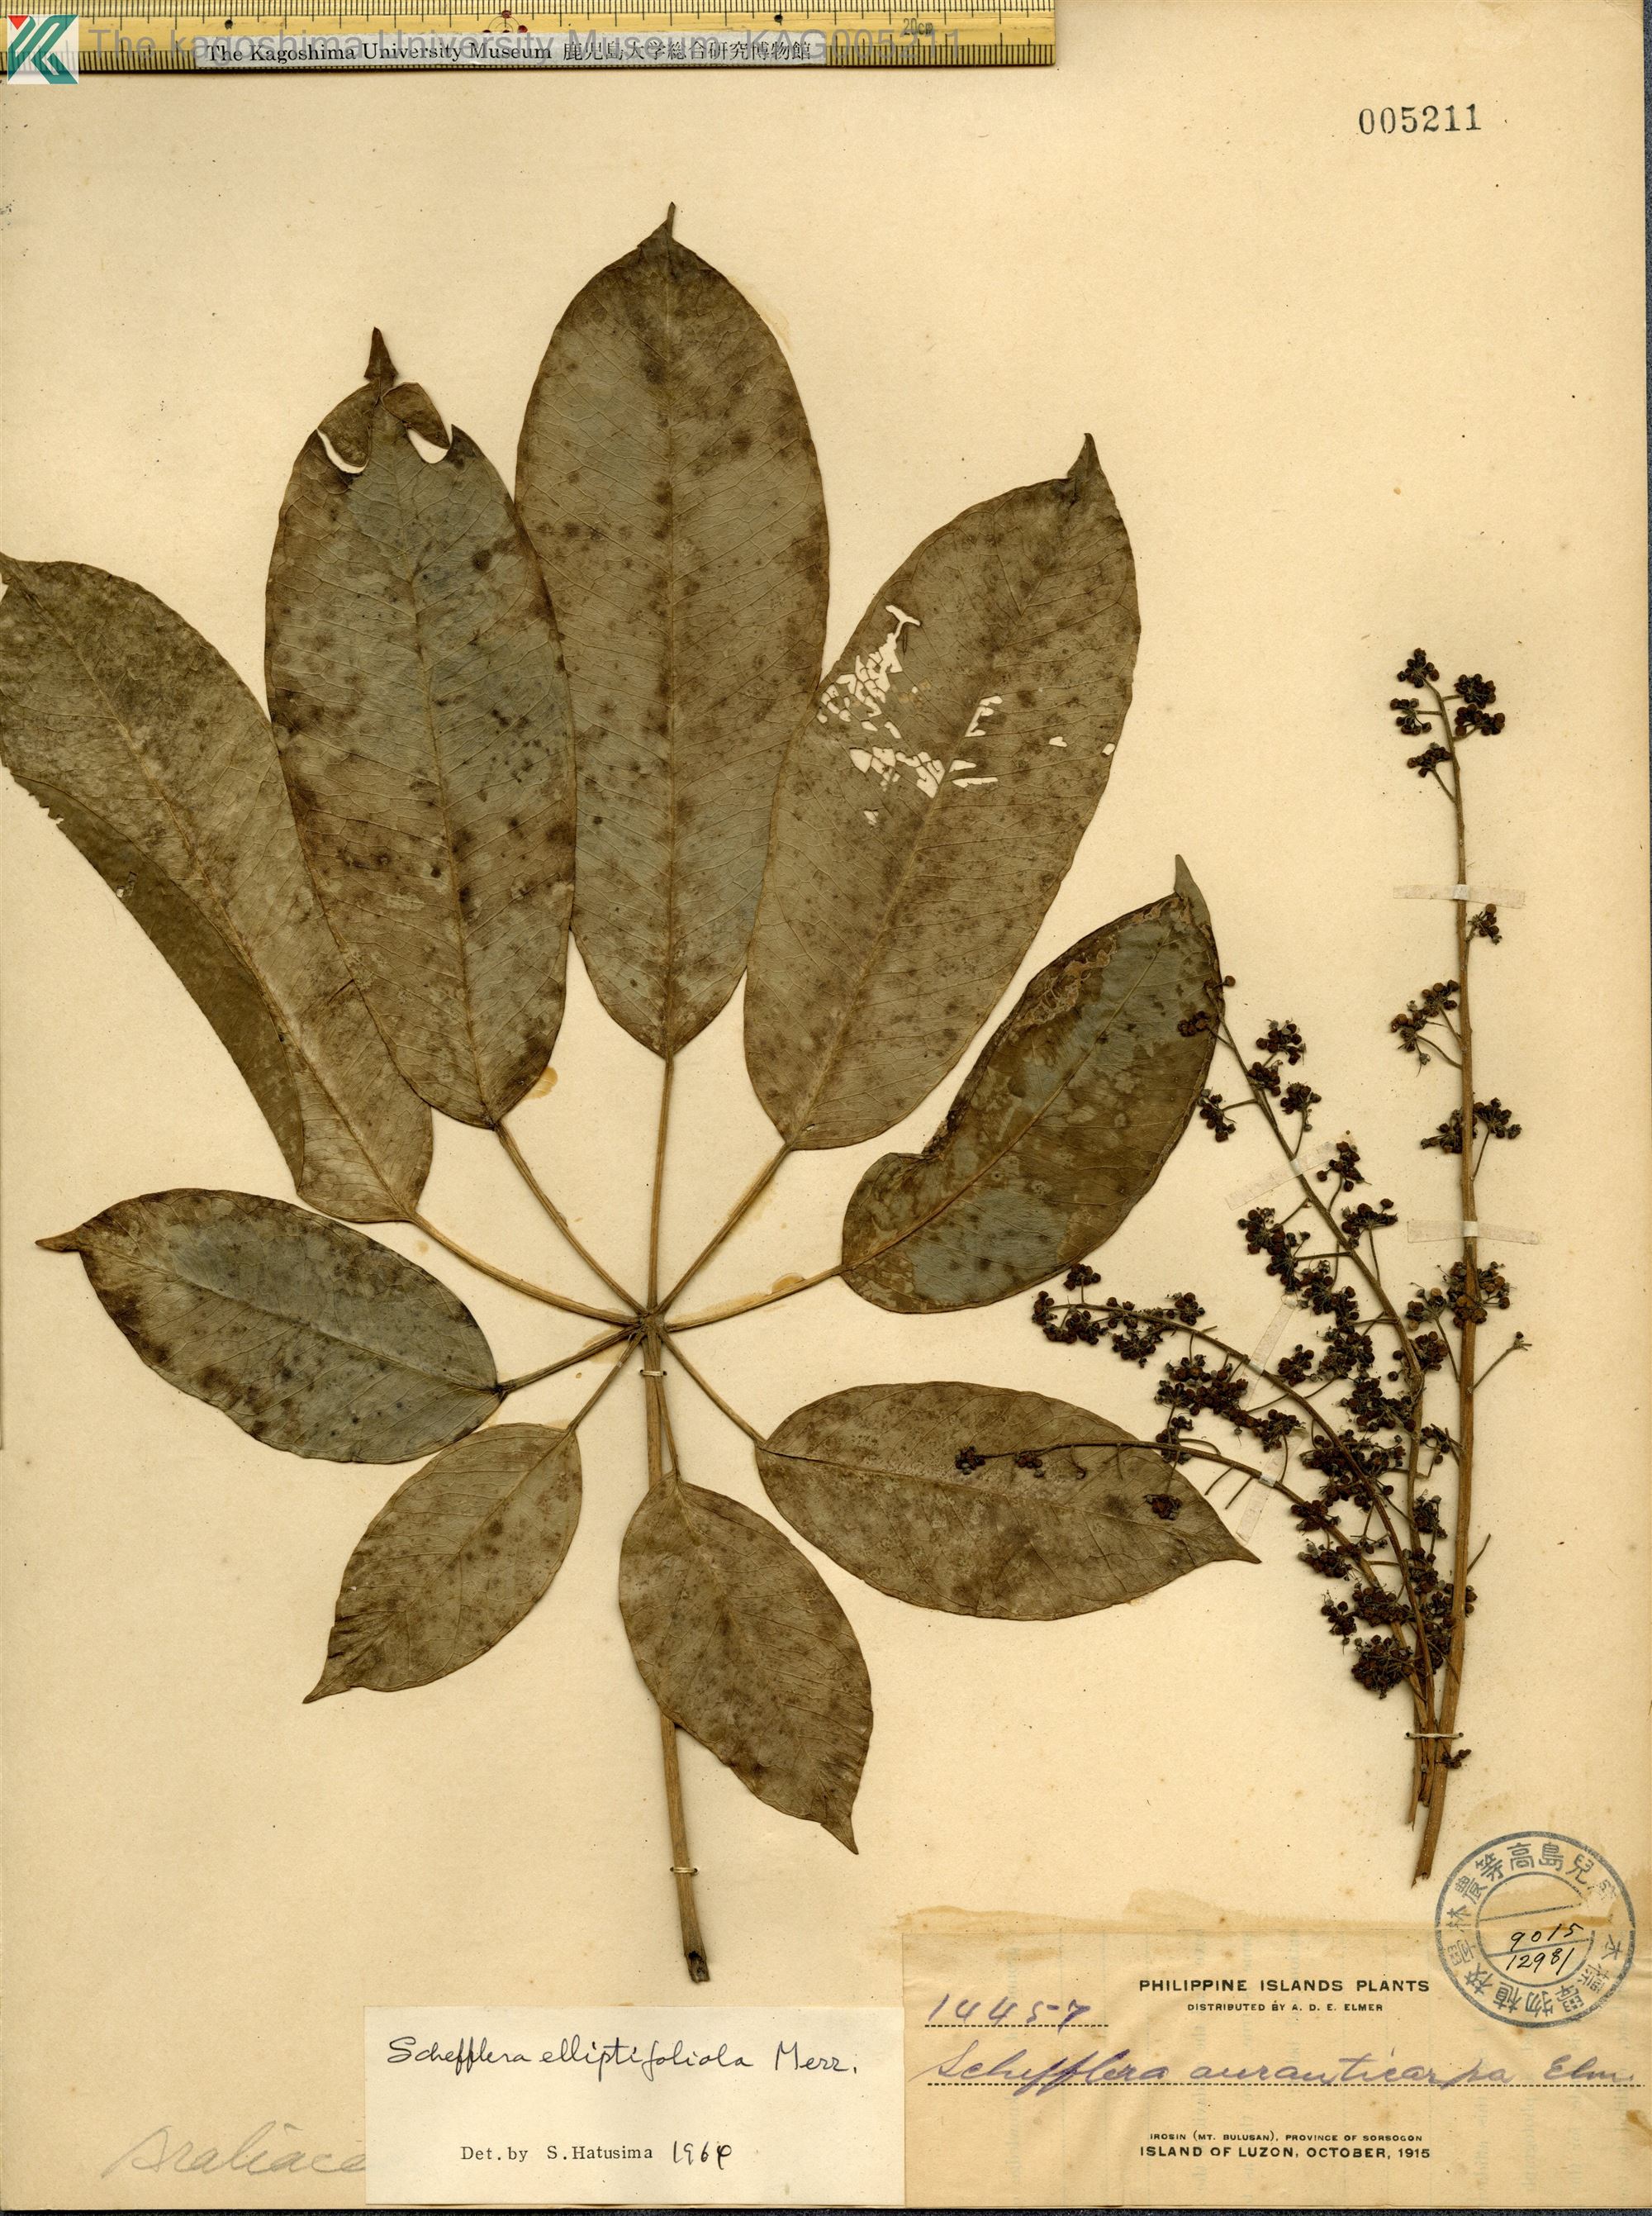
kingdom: Plantae
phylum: Tracheophyta
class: Magnoliopsida
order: Apiales
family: Araliaceae
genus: Heptapleurum
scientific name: Heptapleurum elliptifoliolum
